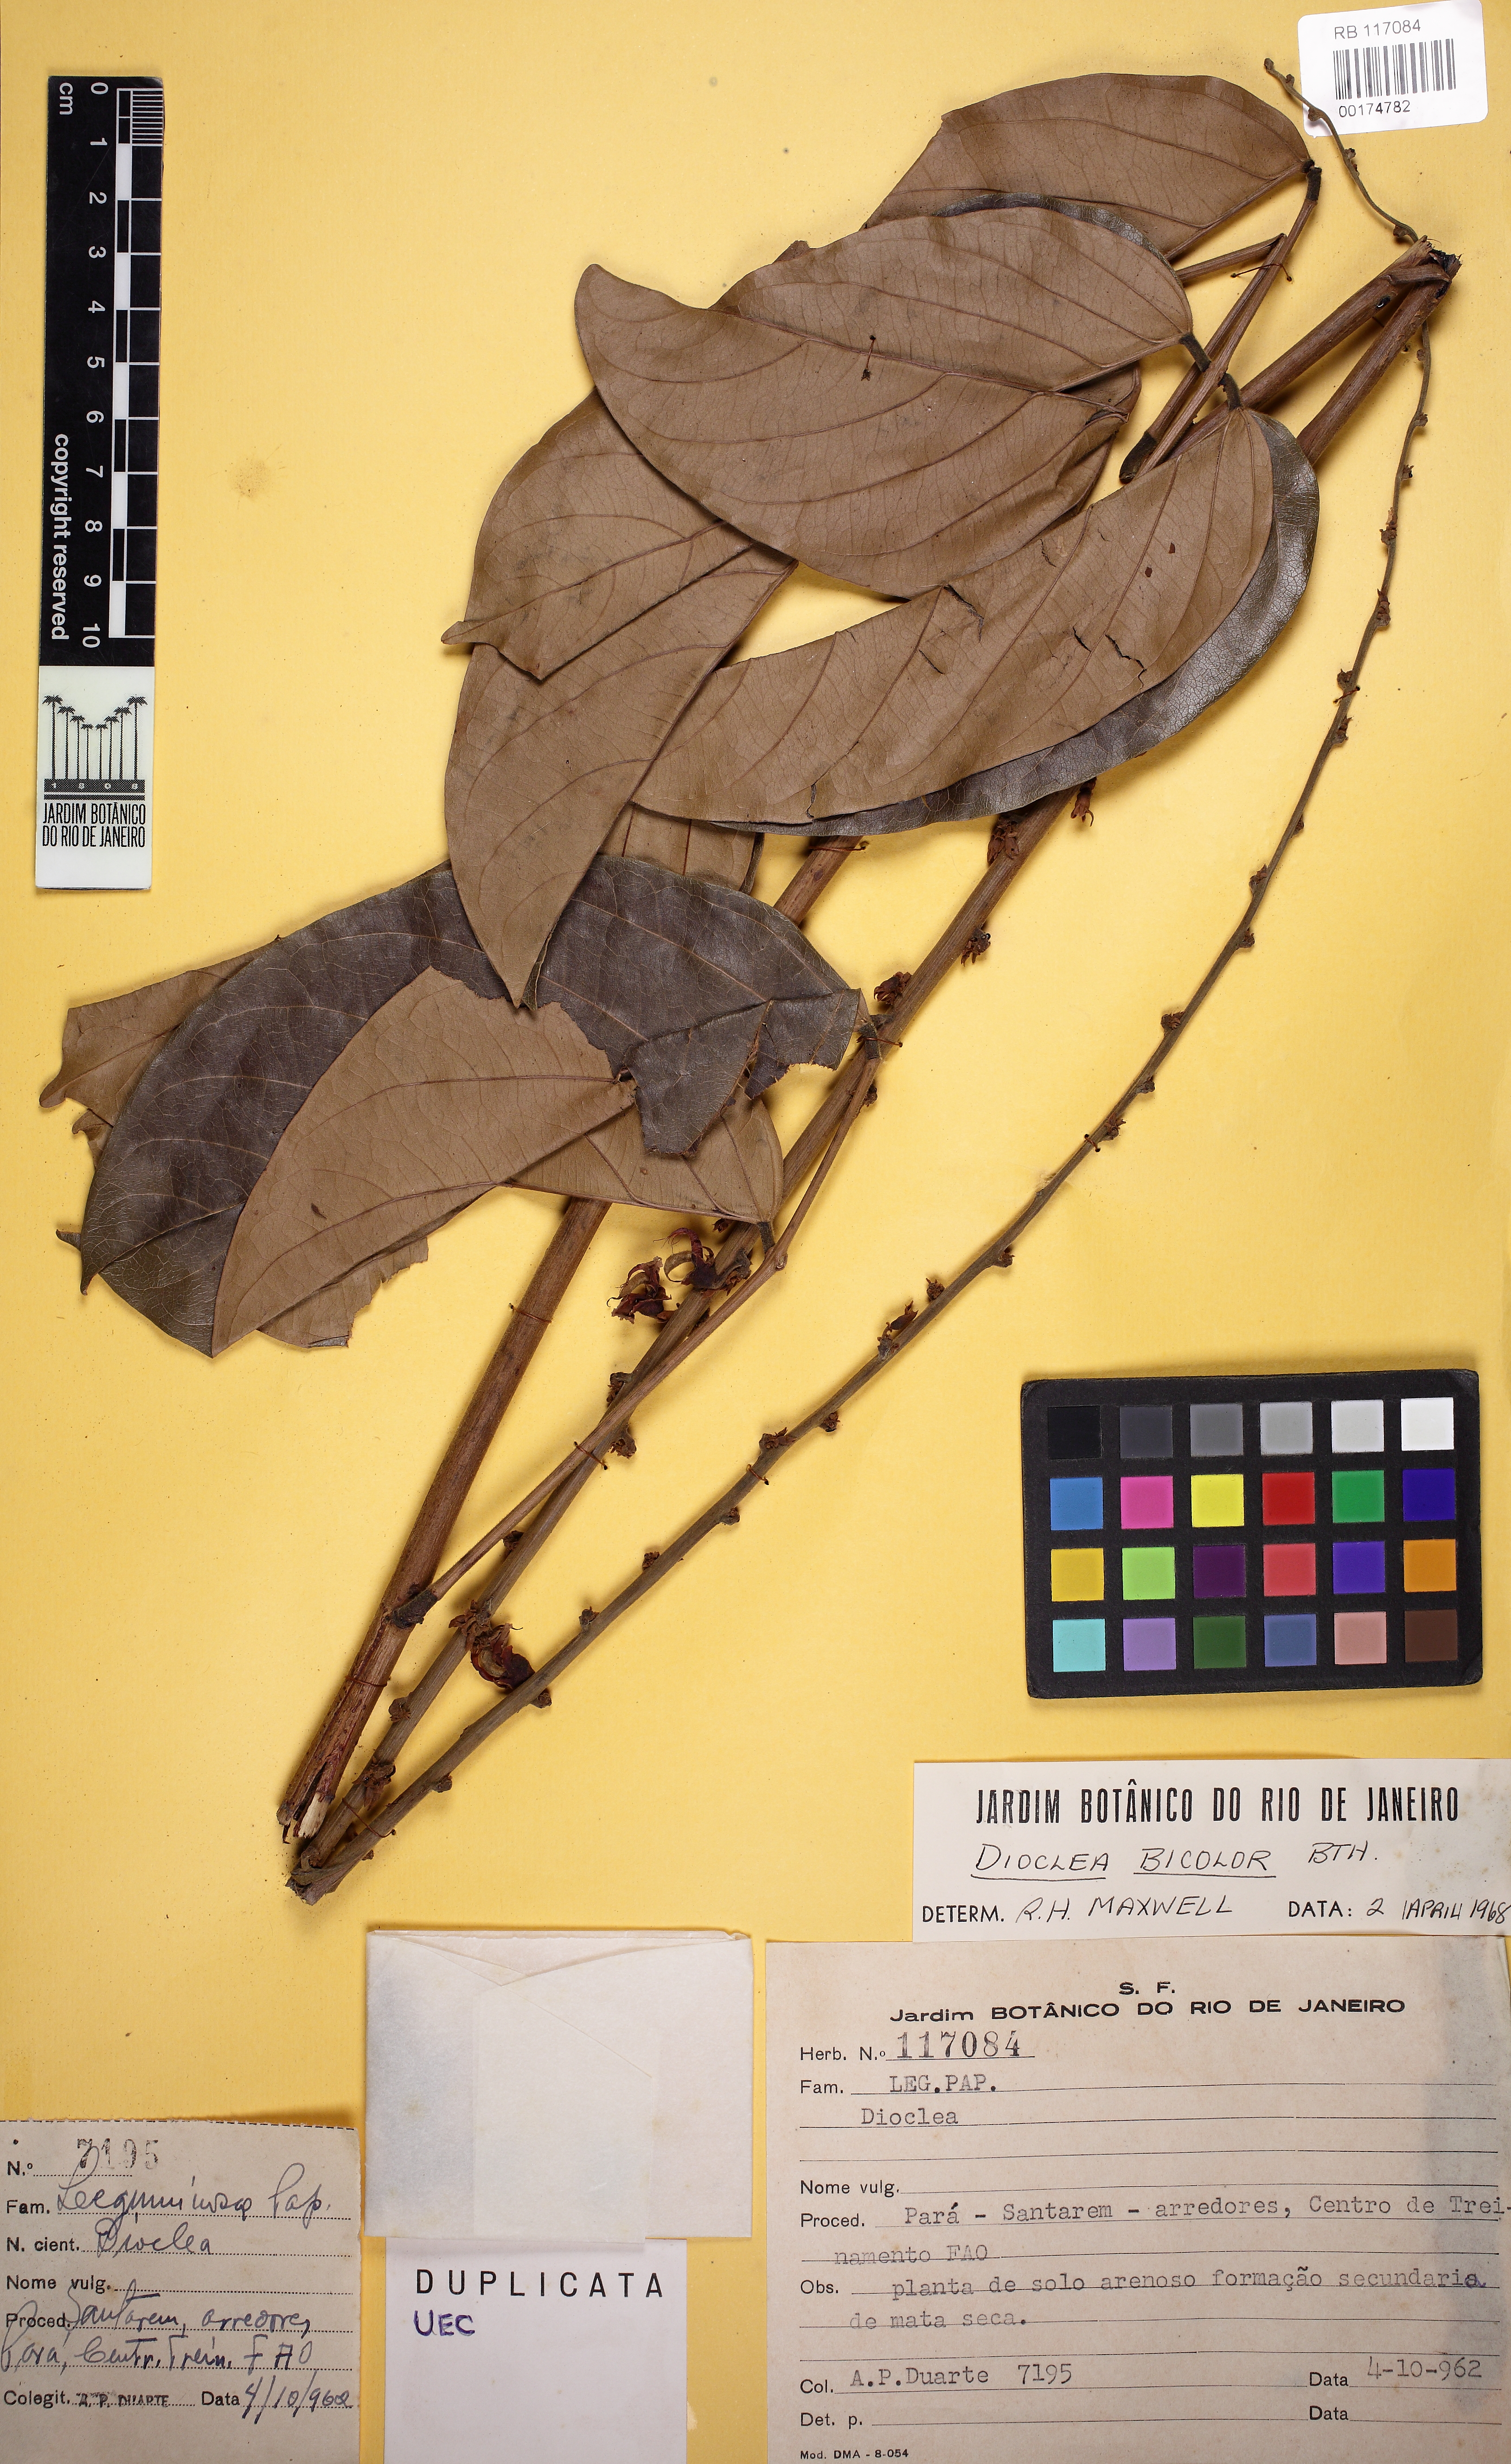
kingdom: Plantae
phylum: Tracheophyta
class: Magnoliopsida
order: Fabales
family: Fabaceae
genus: Macropsychanthus
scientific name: Macropsychanthus bicolor
